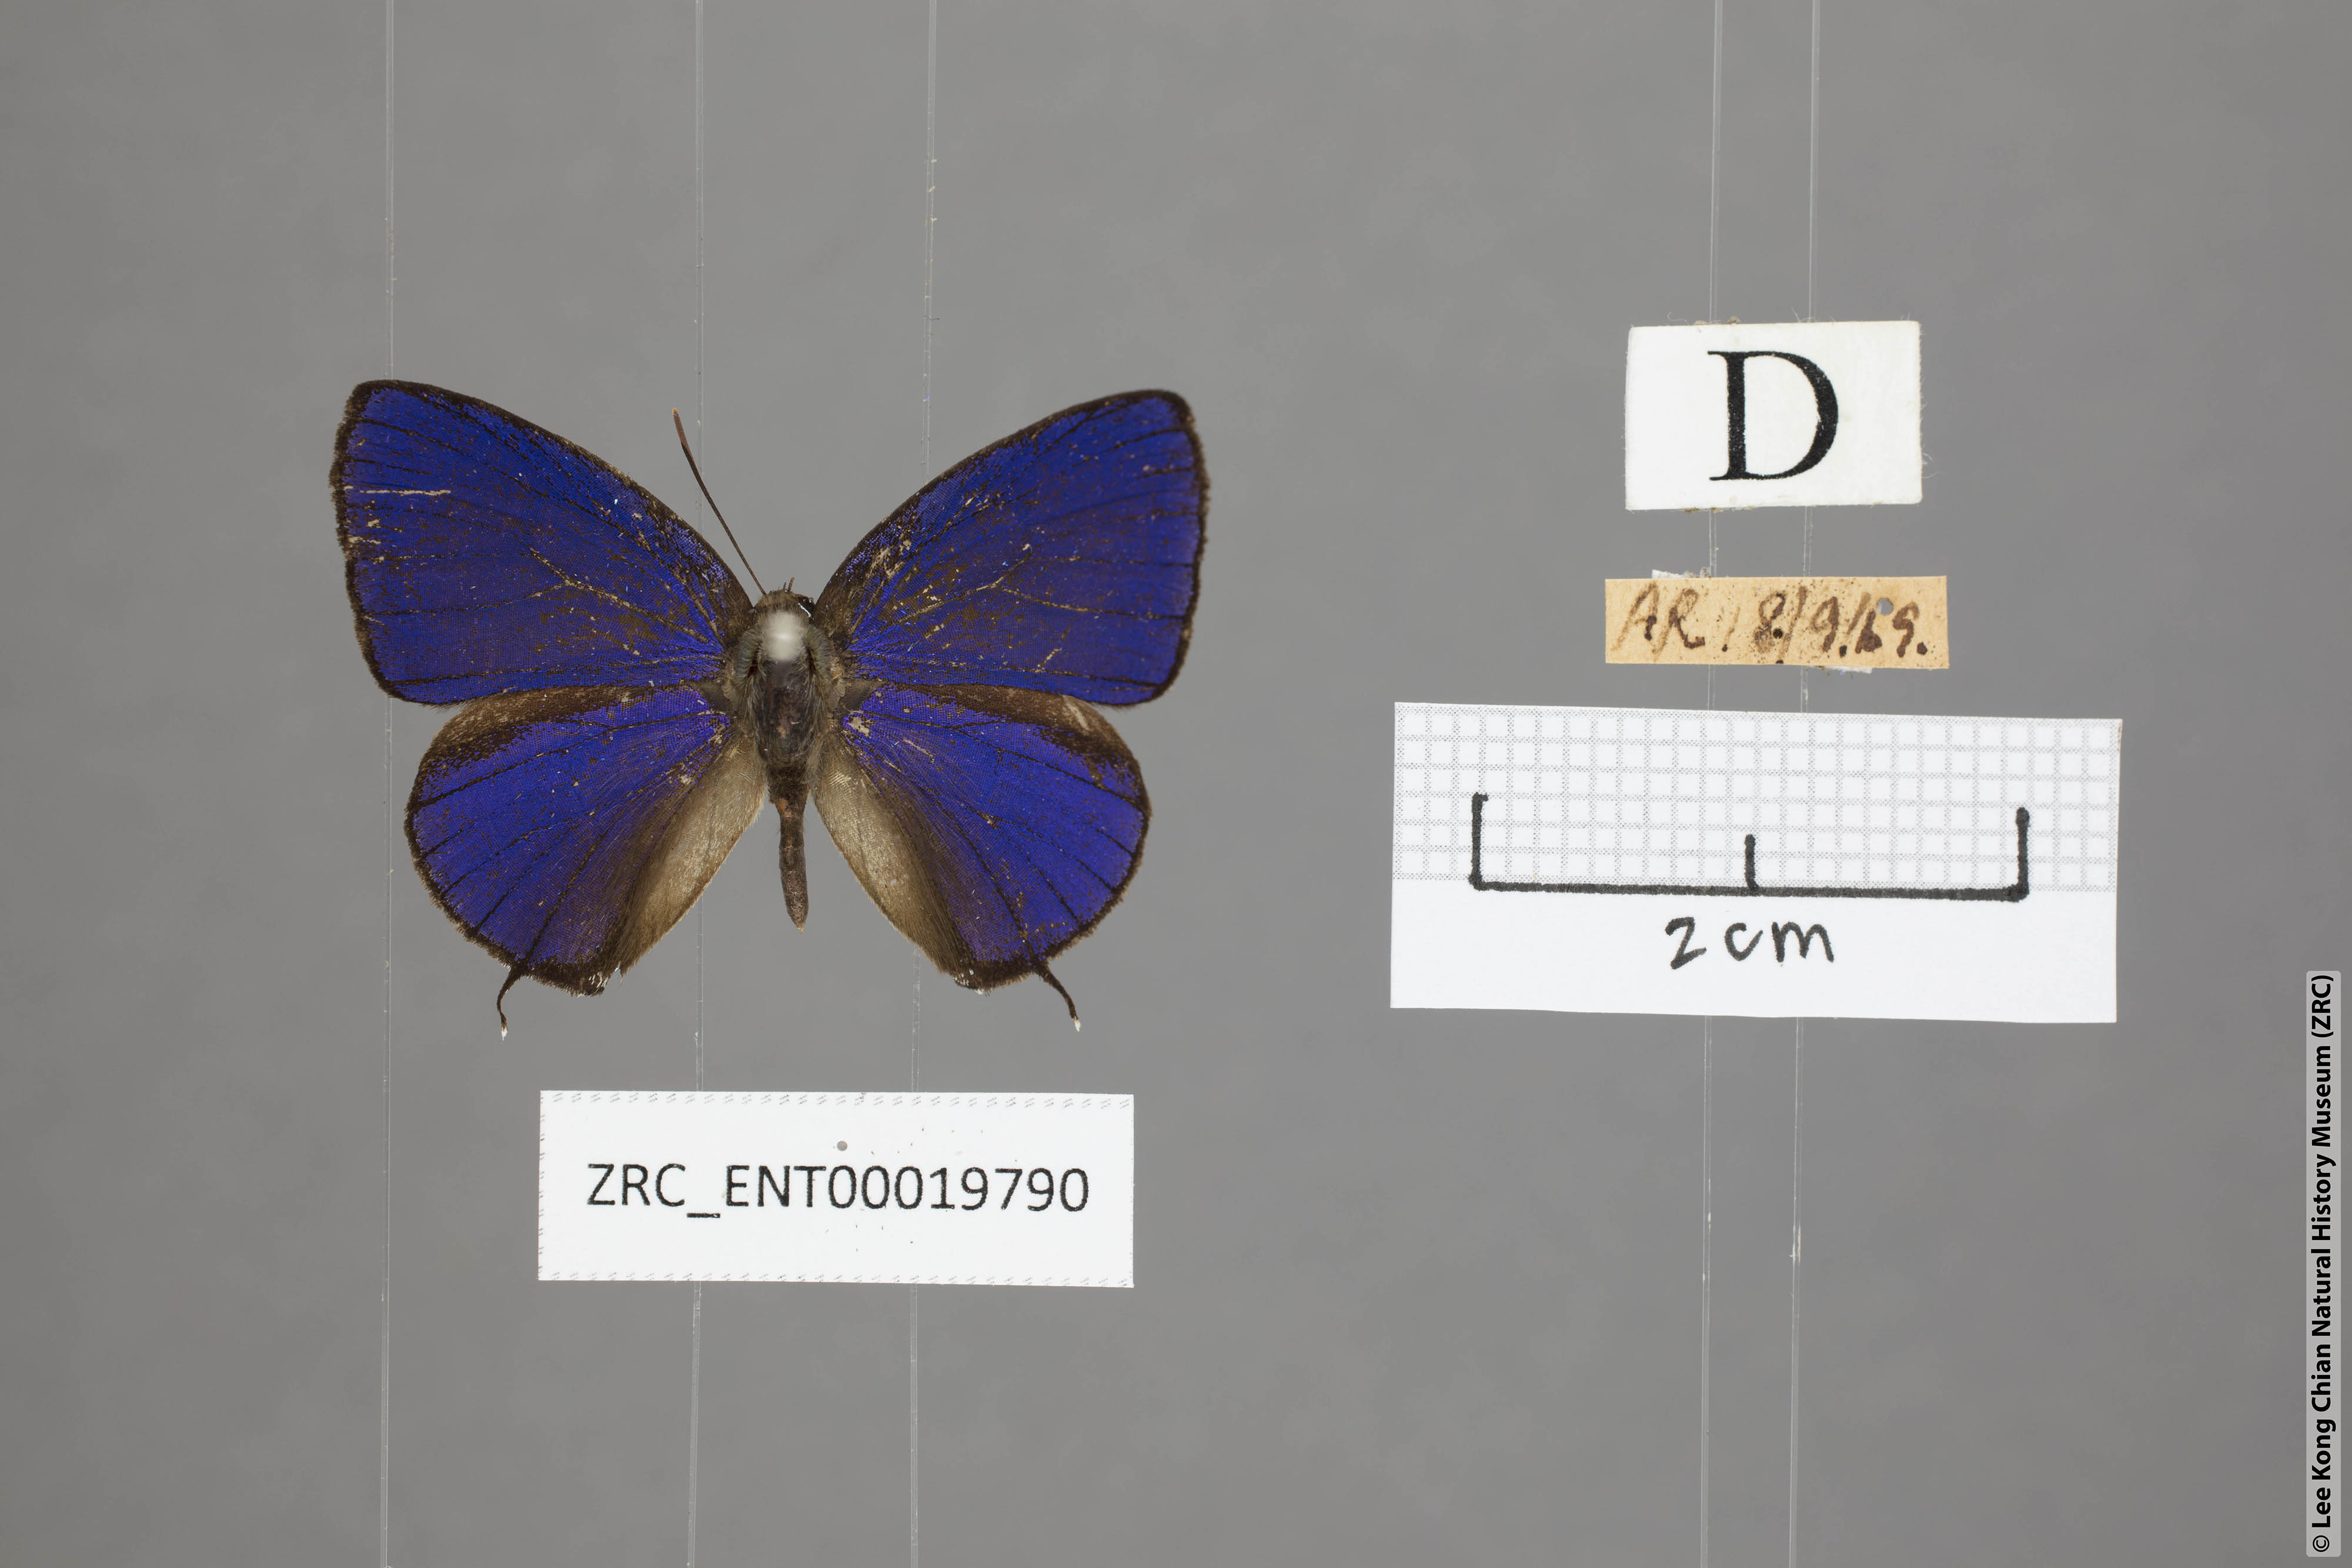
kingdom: Animalia
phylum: Arthropoda
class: Insecta
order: Lepidoptera
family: Lycaenidae
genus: Arhopala
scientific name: Arhopala phaenops
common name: Sumatran oakblue
